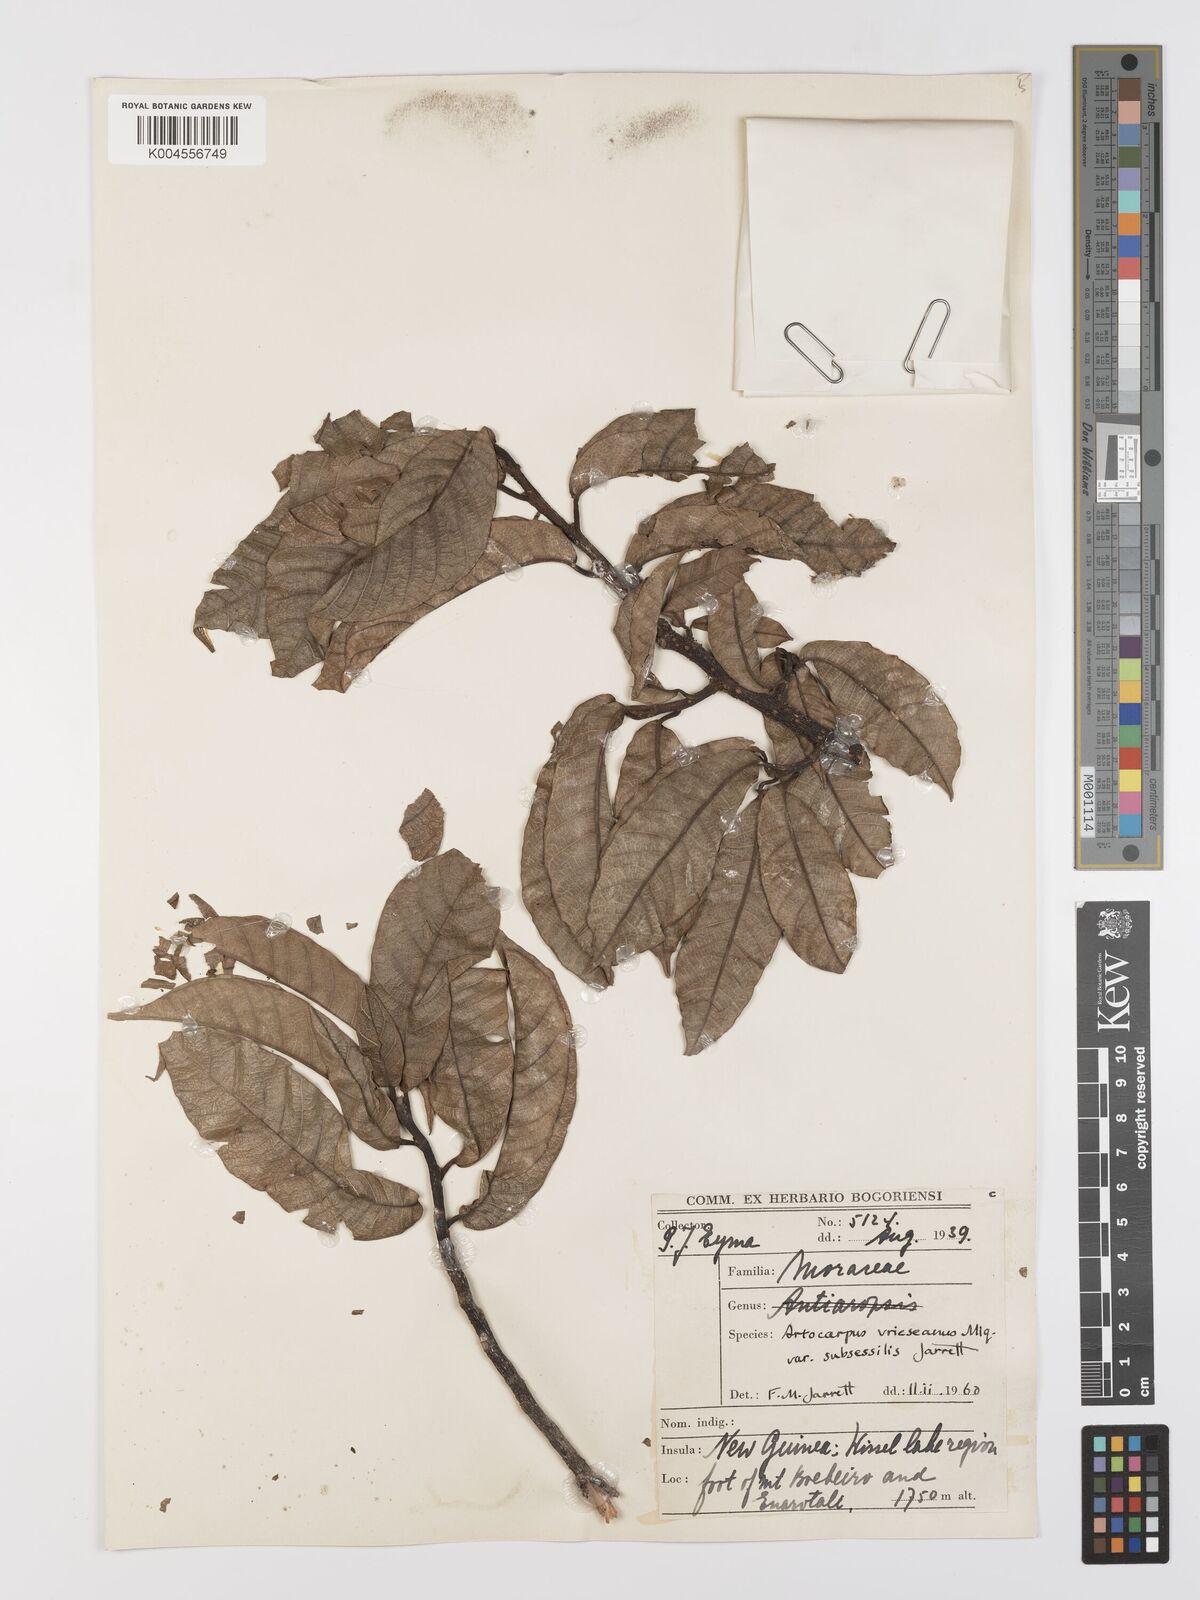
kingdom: Plantae
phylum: Tracheophyta
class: Magnoliopsida
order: Rosales
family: Moraceae
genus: Artocarpus
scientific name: Artocarpus vrieseanus
